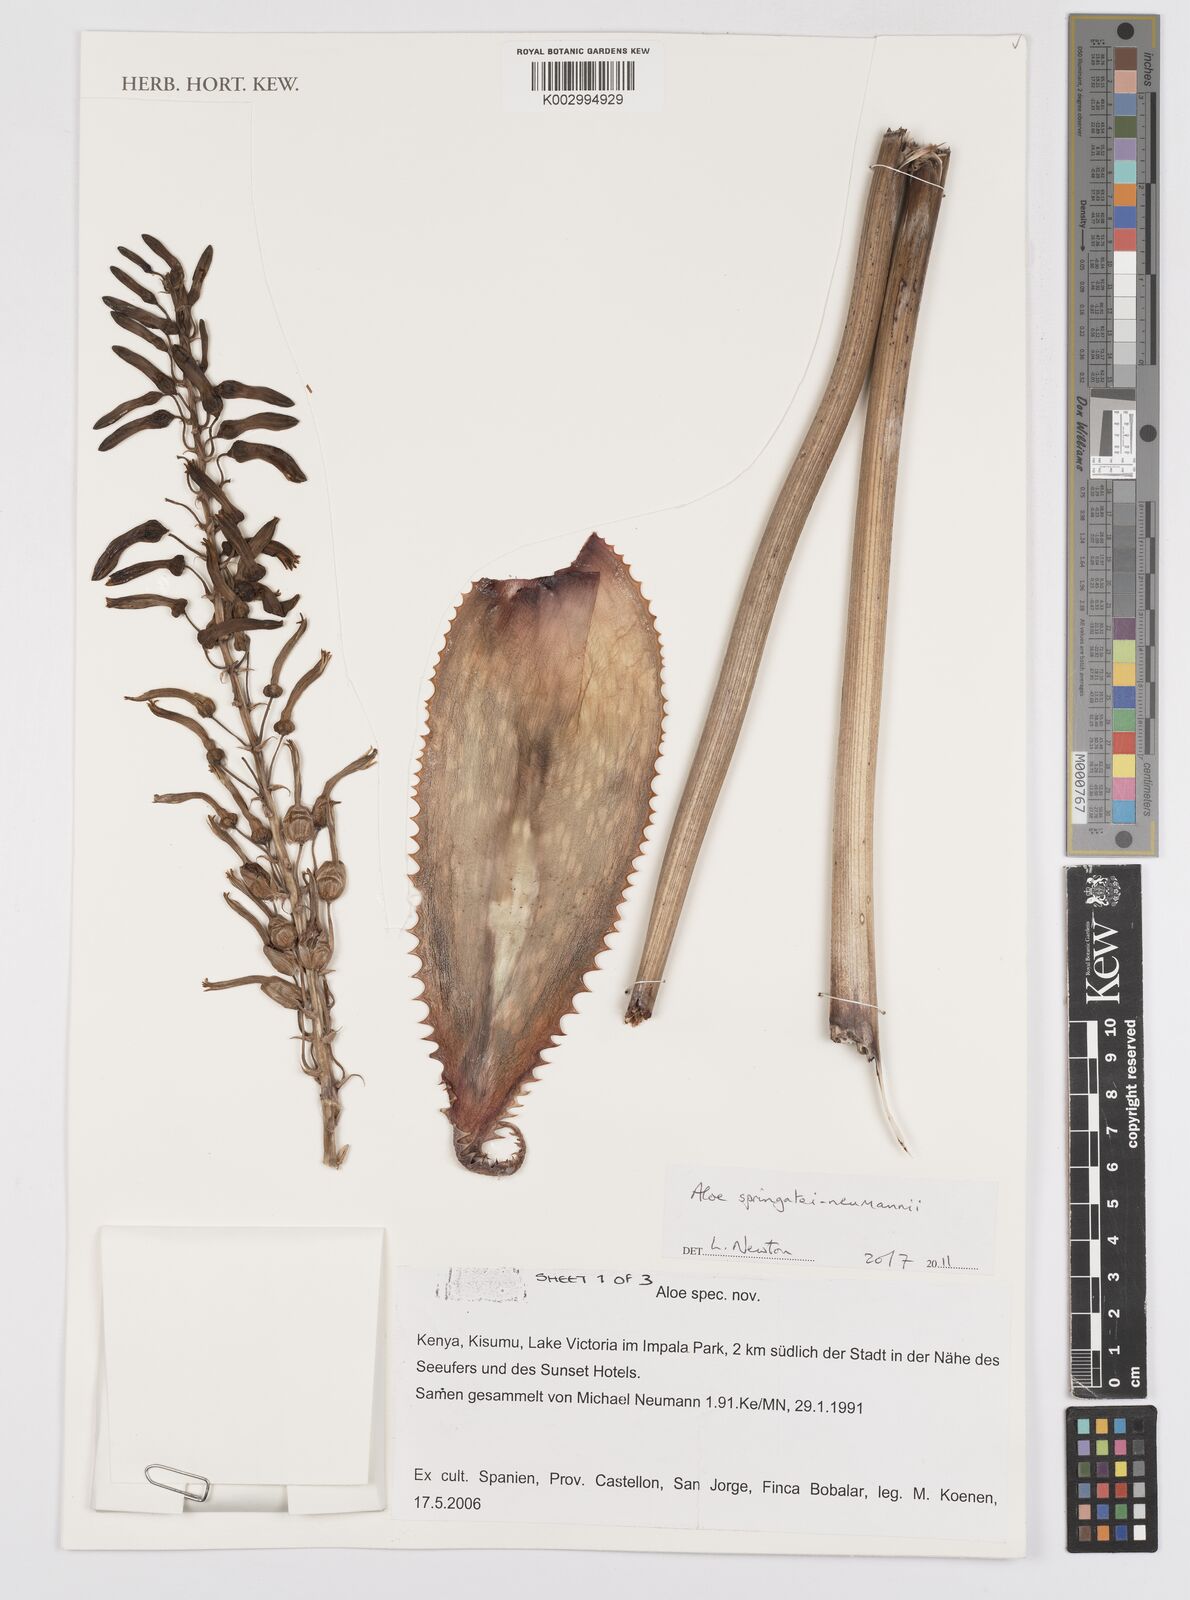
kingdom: Plantae
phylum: Tracheophyta
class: Liliopsida
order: Asparagales
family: Asphodelaceae
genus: Aloe
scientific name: Aloe springatei-neumannii
